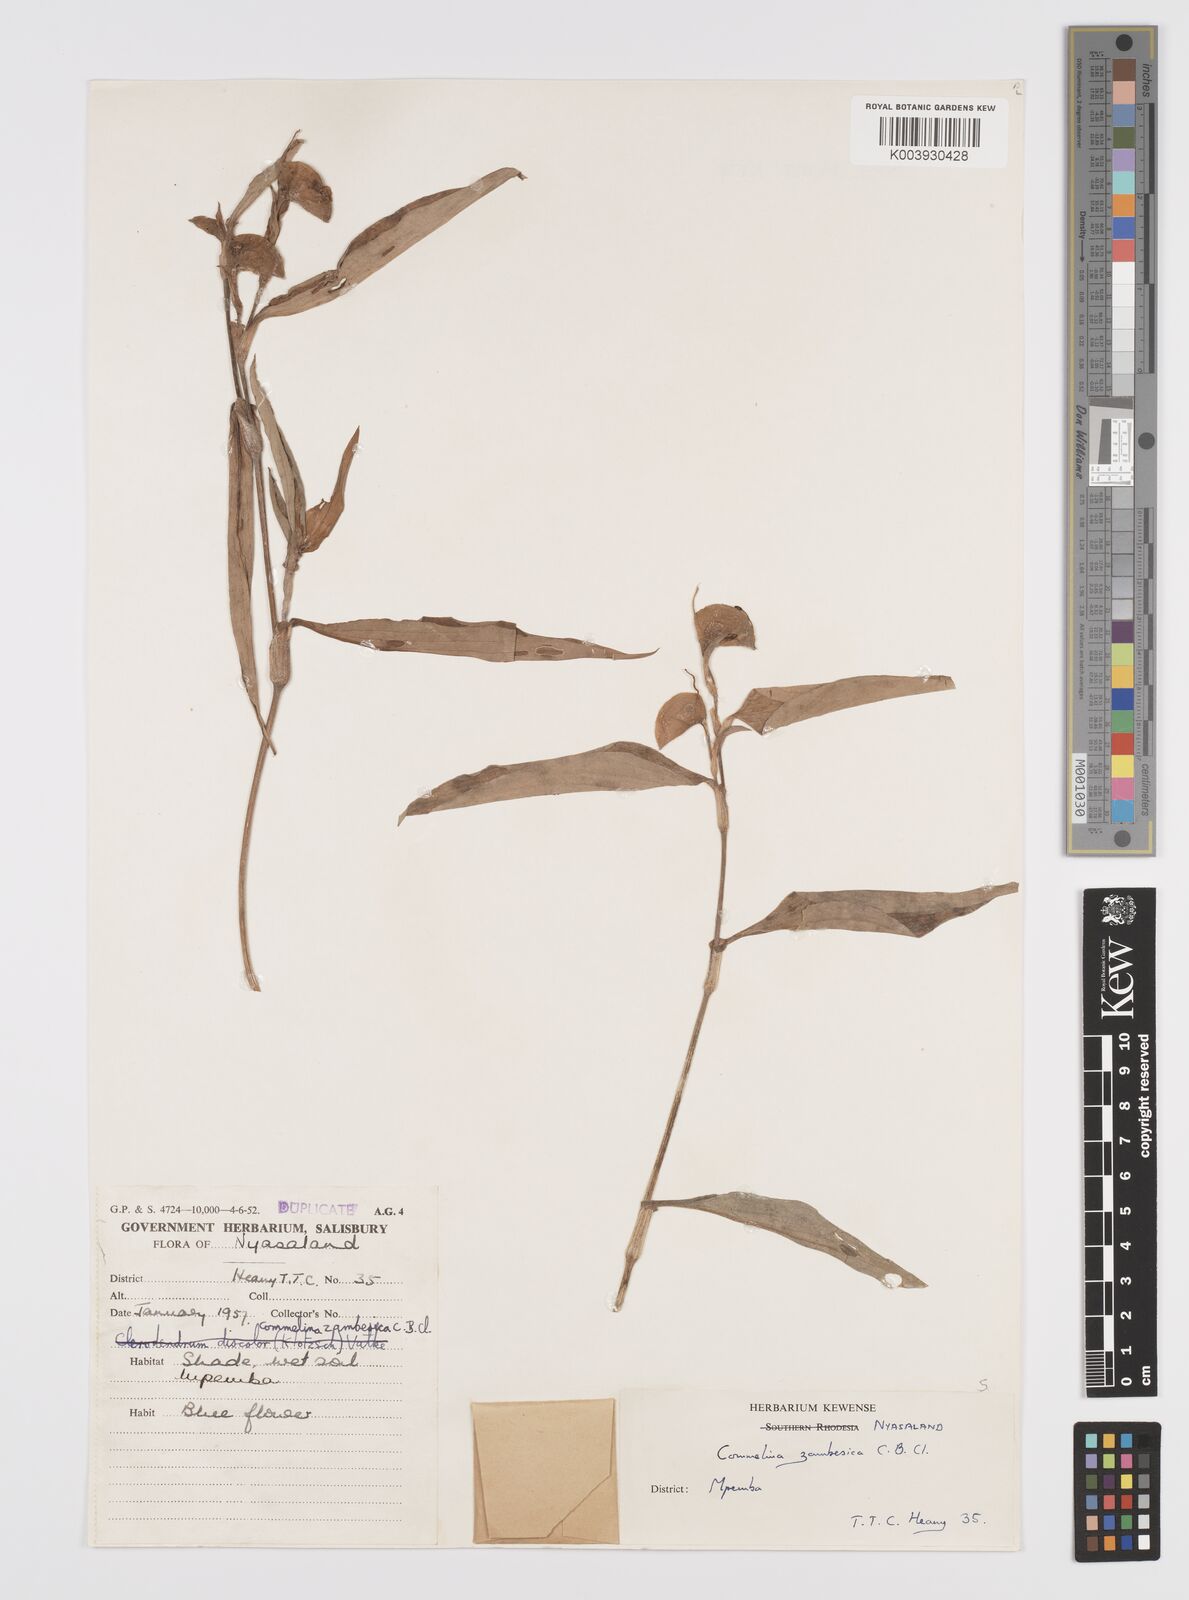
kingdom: Plantae
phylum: Tracheophyta
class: Liliopsida
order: Commelinales
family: Commelinaceae
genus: Commelina
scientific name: Commelina zambesica
